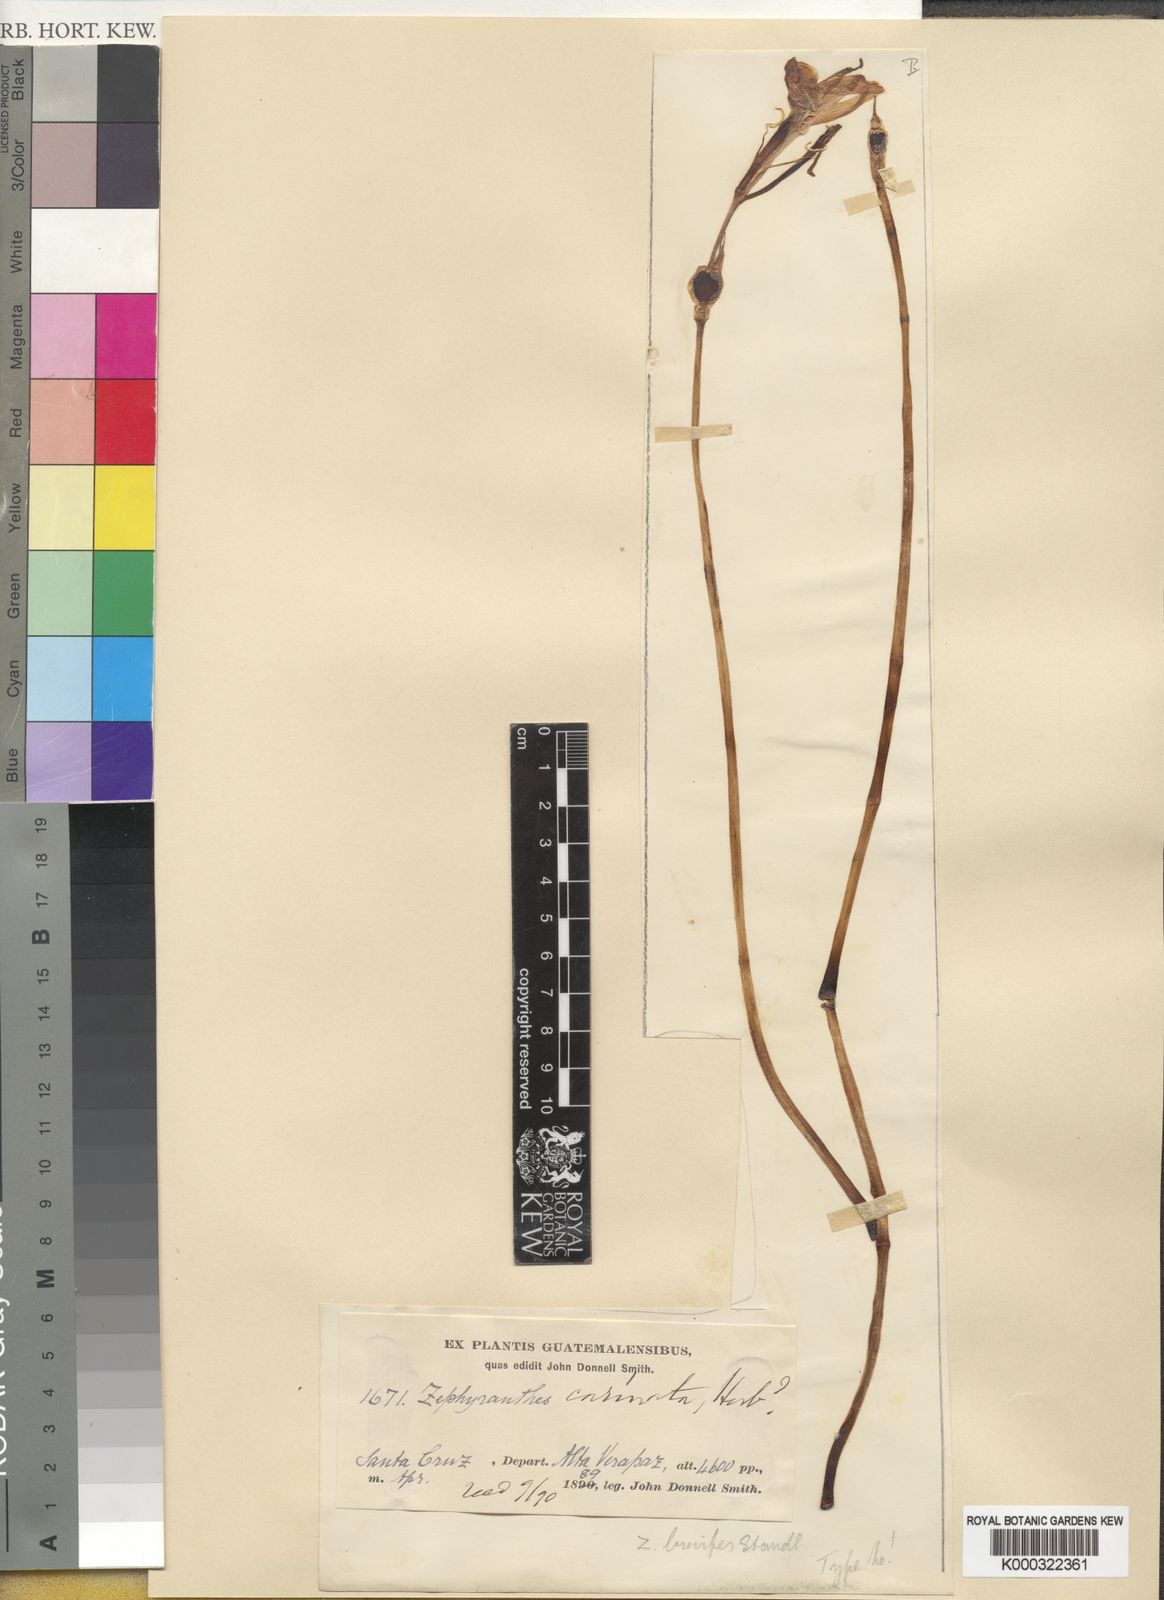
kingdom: Plantae
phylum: Tracheophyta
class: Liliopsida
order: Asparagales
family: Amaryllidaceae
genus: Zephyranthes
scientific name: Zephyranthes brevipes
